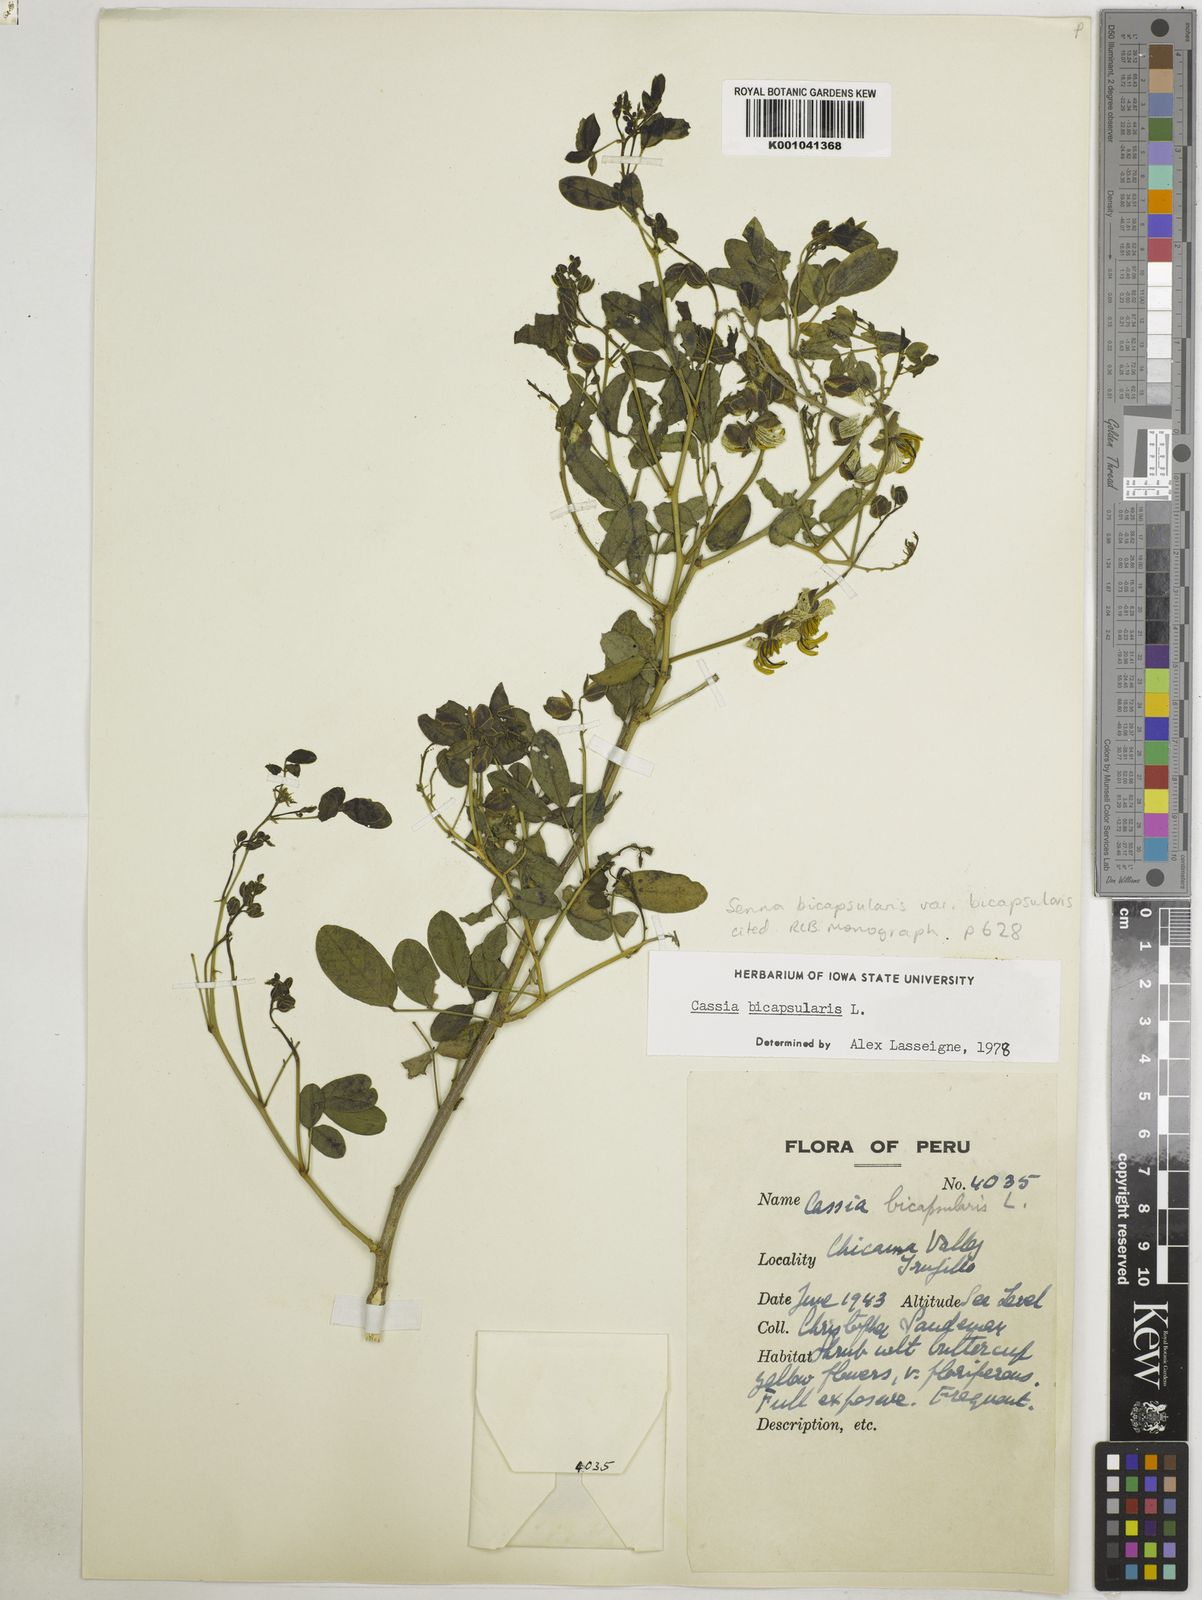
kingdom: Plantae
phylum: Tracheophyta
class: Magnoliopsida
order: Fabales
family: Fabaceae
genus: Senna
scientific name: Senna bicapsularis
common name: Christmasbush
